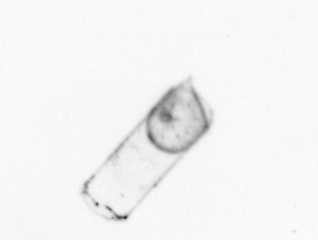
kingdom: Chromista
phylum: Ochrophyta
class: Bacillariophyceae
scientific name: Bacillariophyceae
